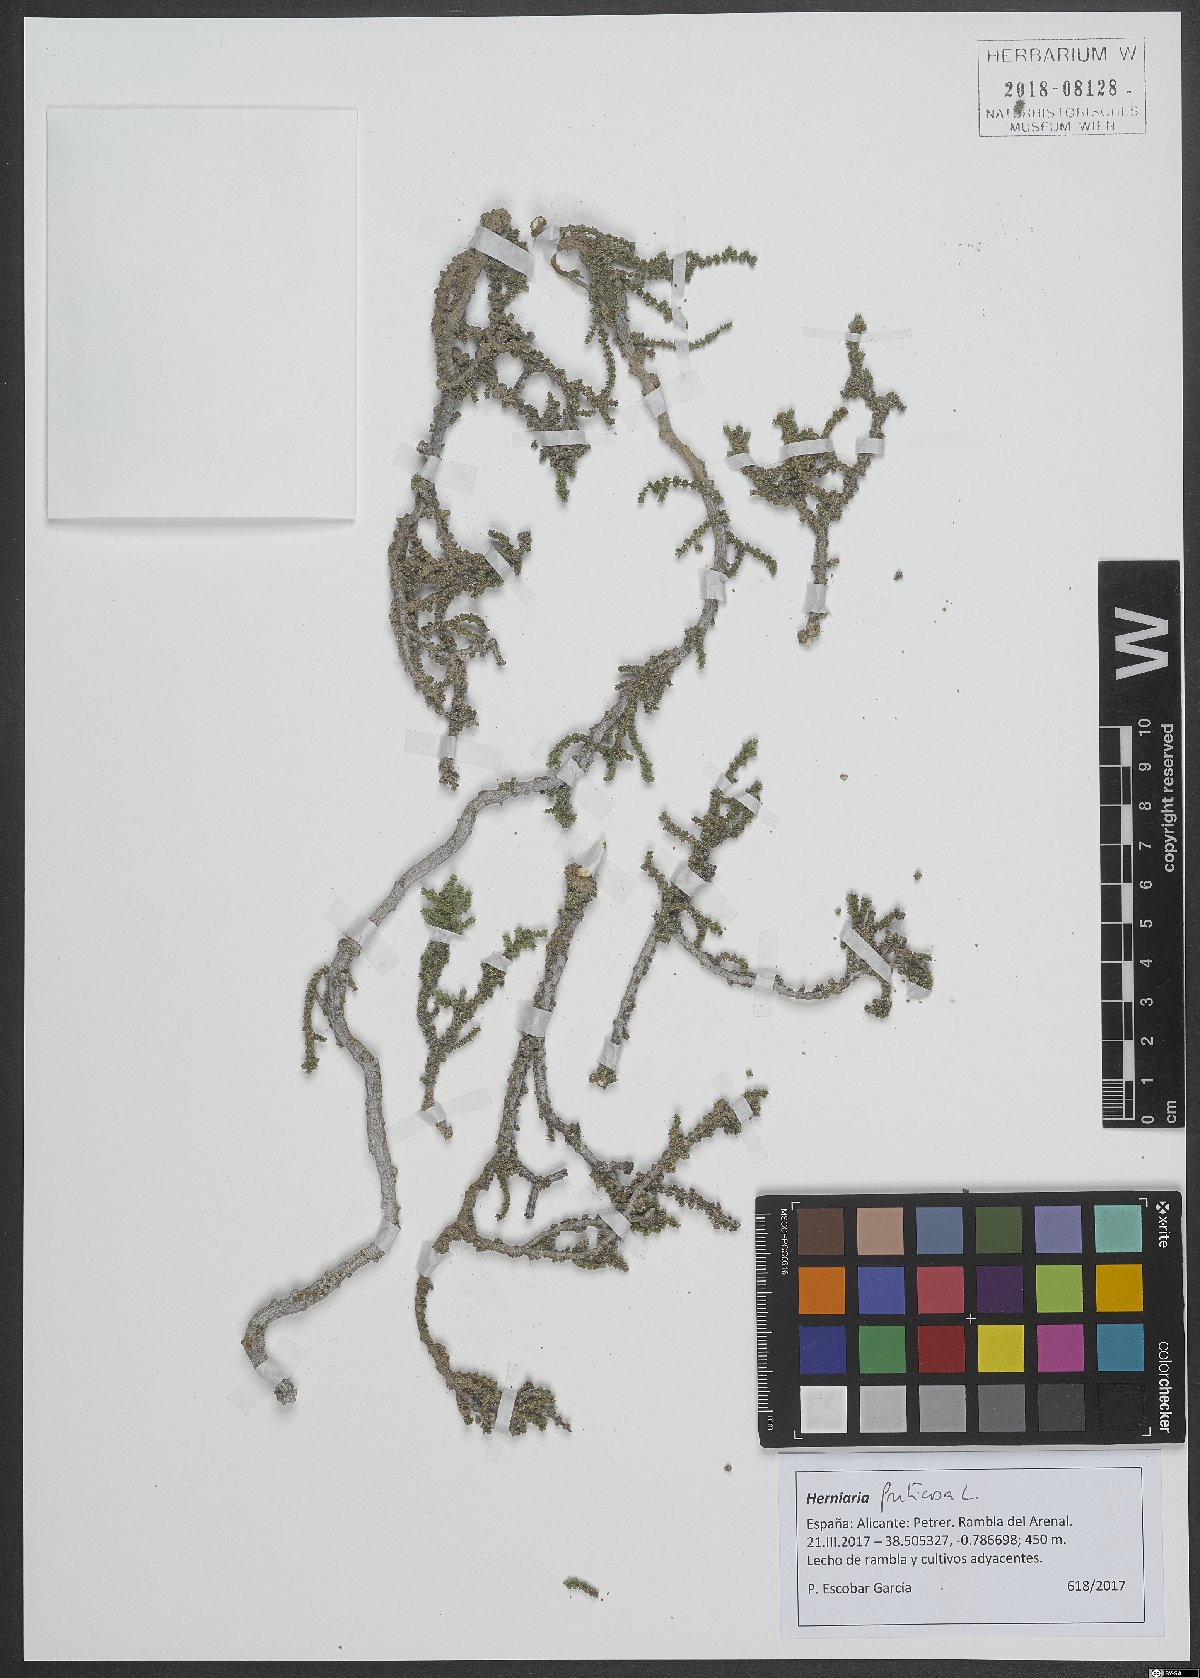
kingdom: Plantae
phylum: Tracheophyta
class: Magnoliopsida
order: Caryophyllales
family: Caryophyllaceae
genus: Herniaria
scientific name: Herniaria fruticosa
